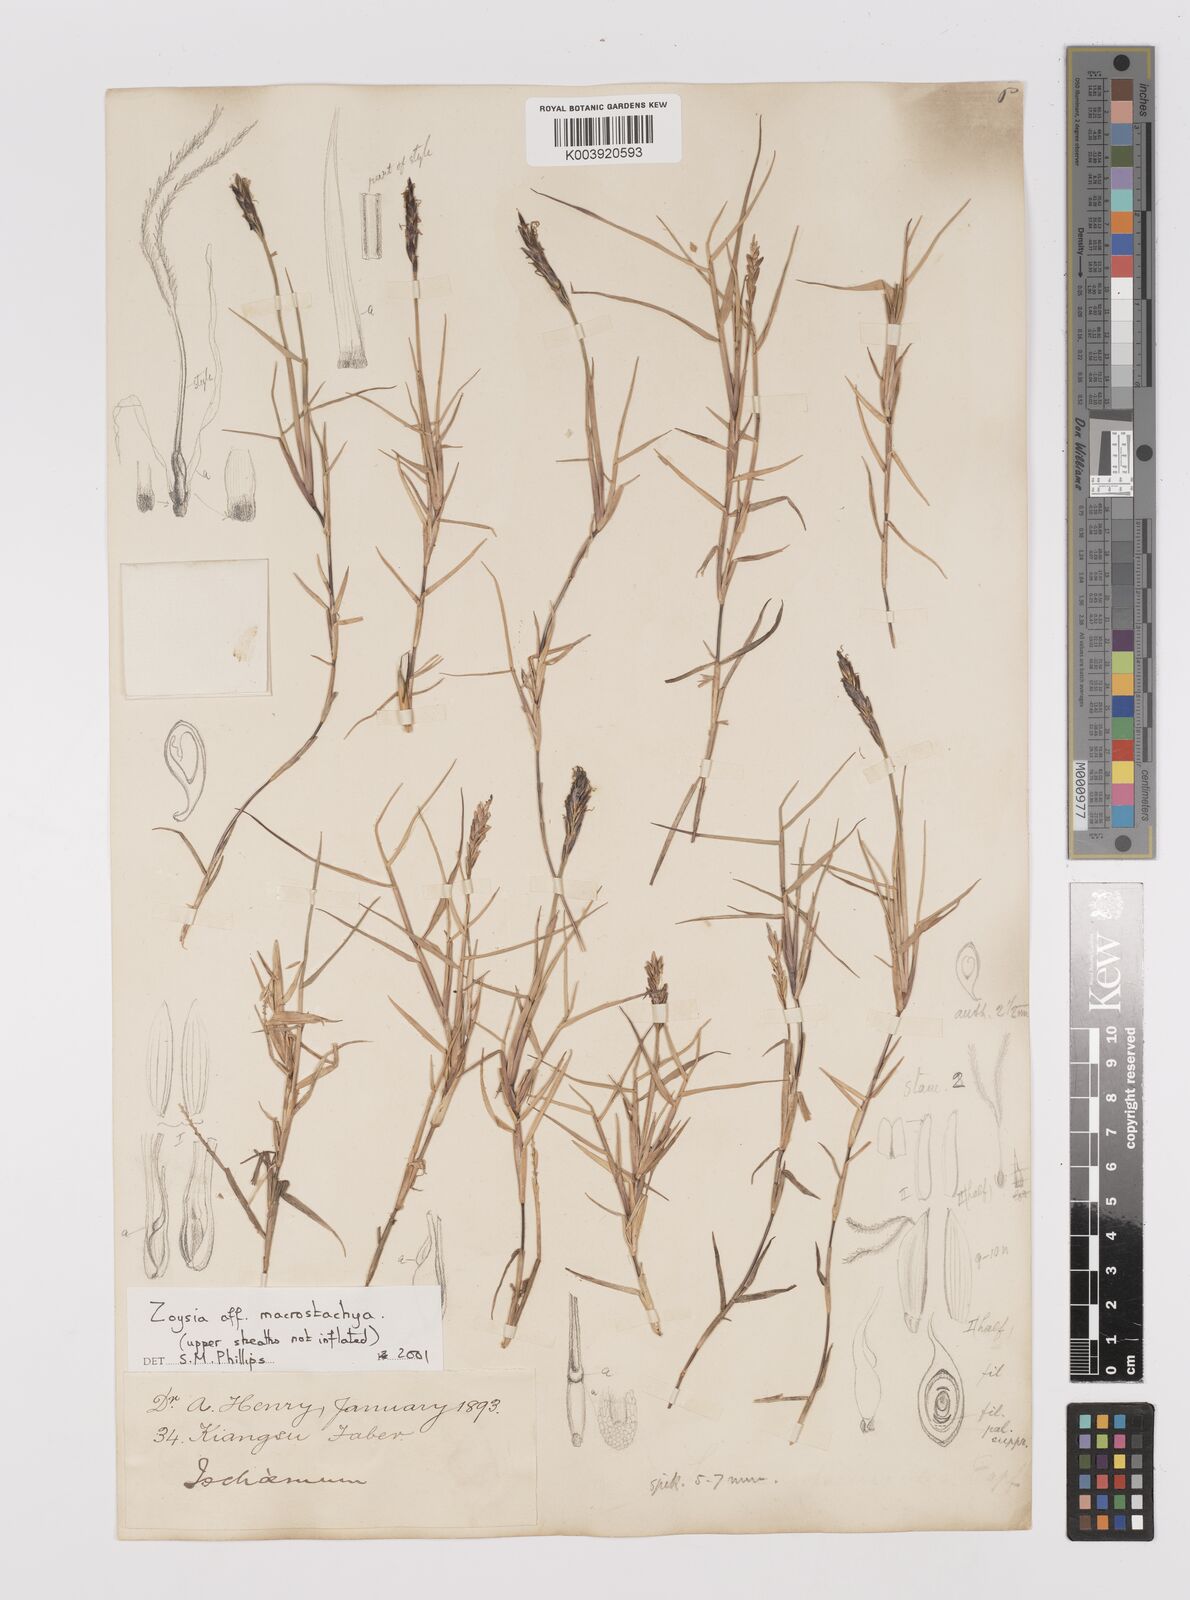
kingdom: Plantae
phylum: Tracheophyta
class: Liliopsida
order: Poales
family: Poaceae
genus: Zoysia
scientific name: Zoysia macrostachya
